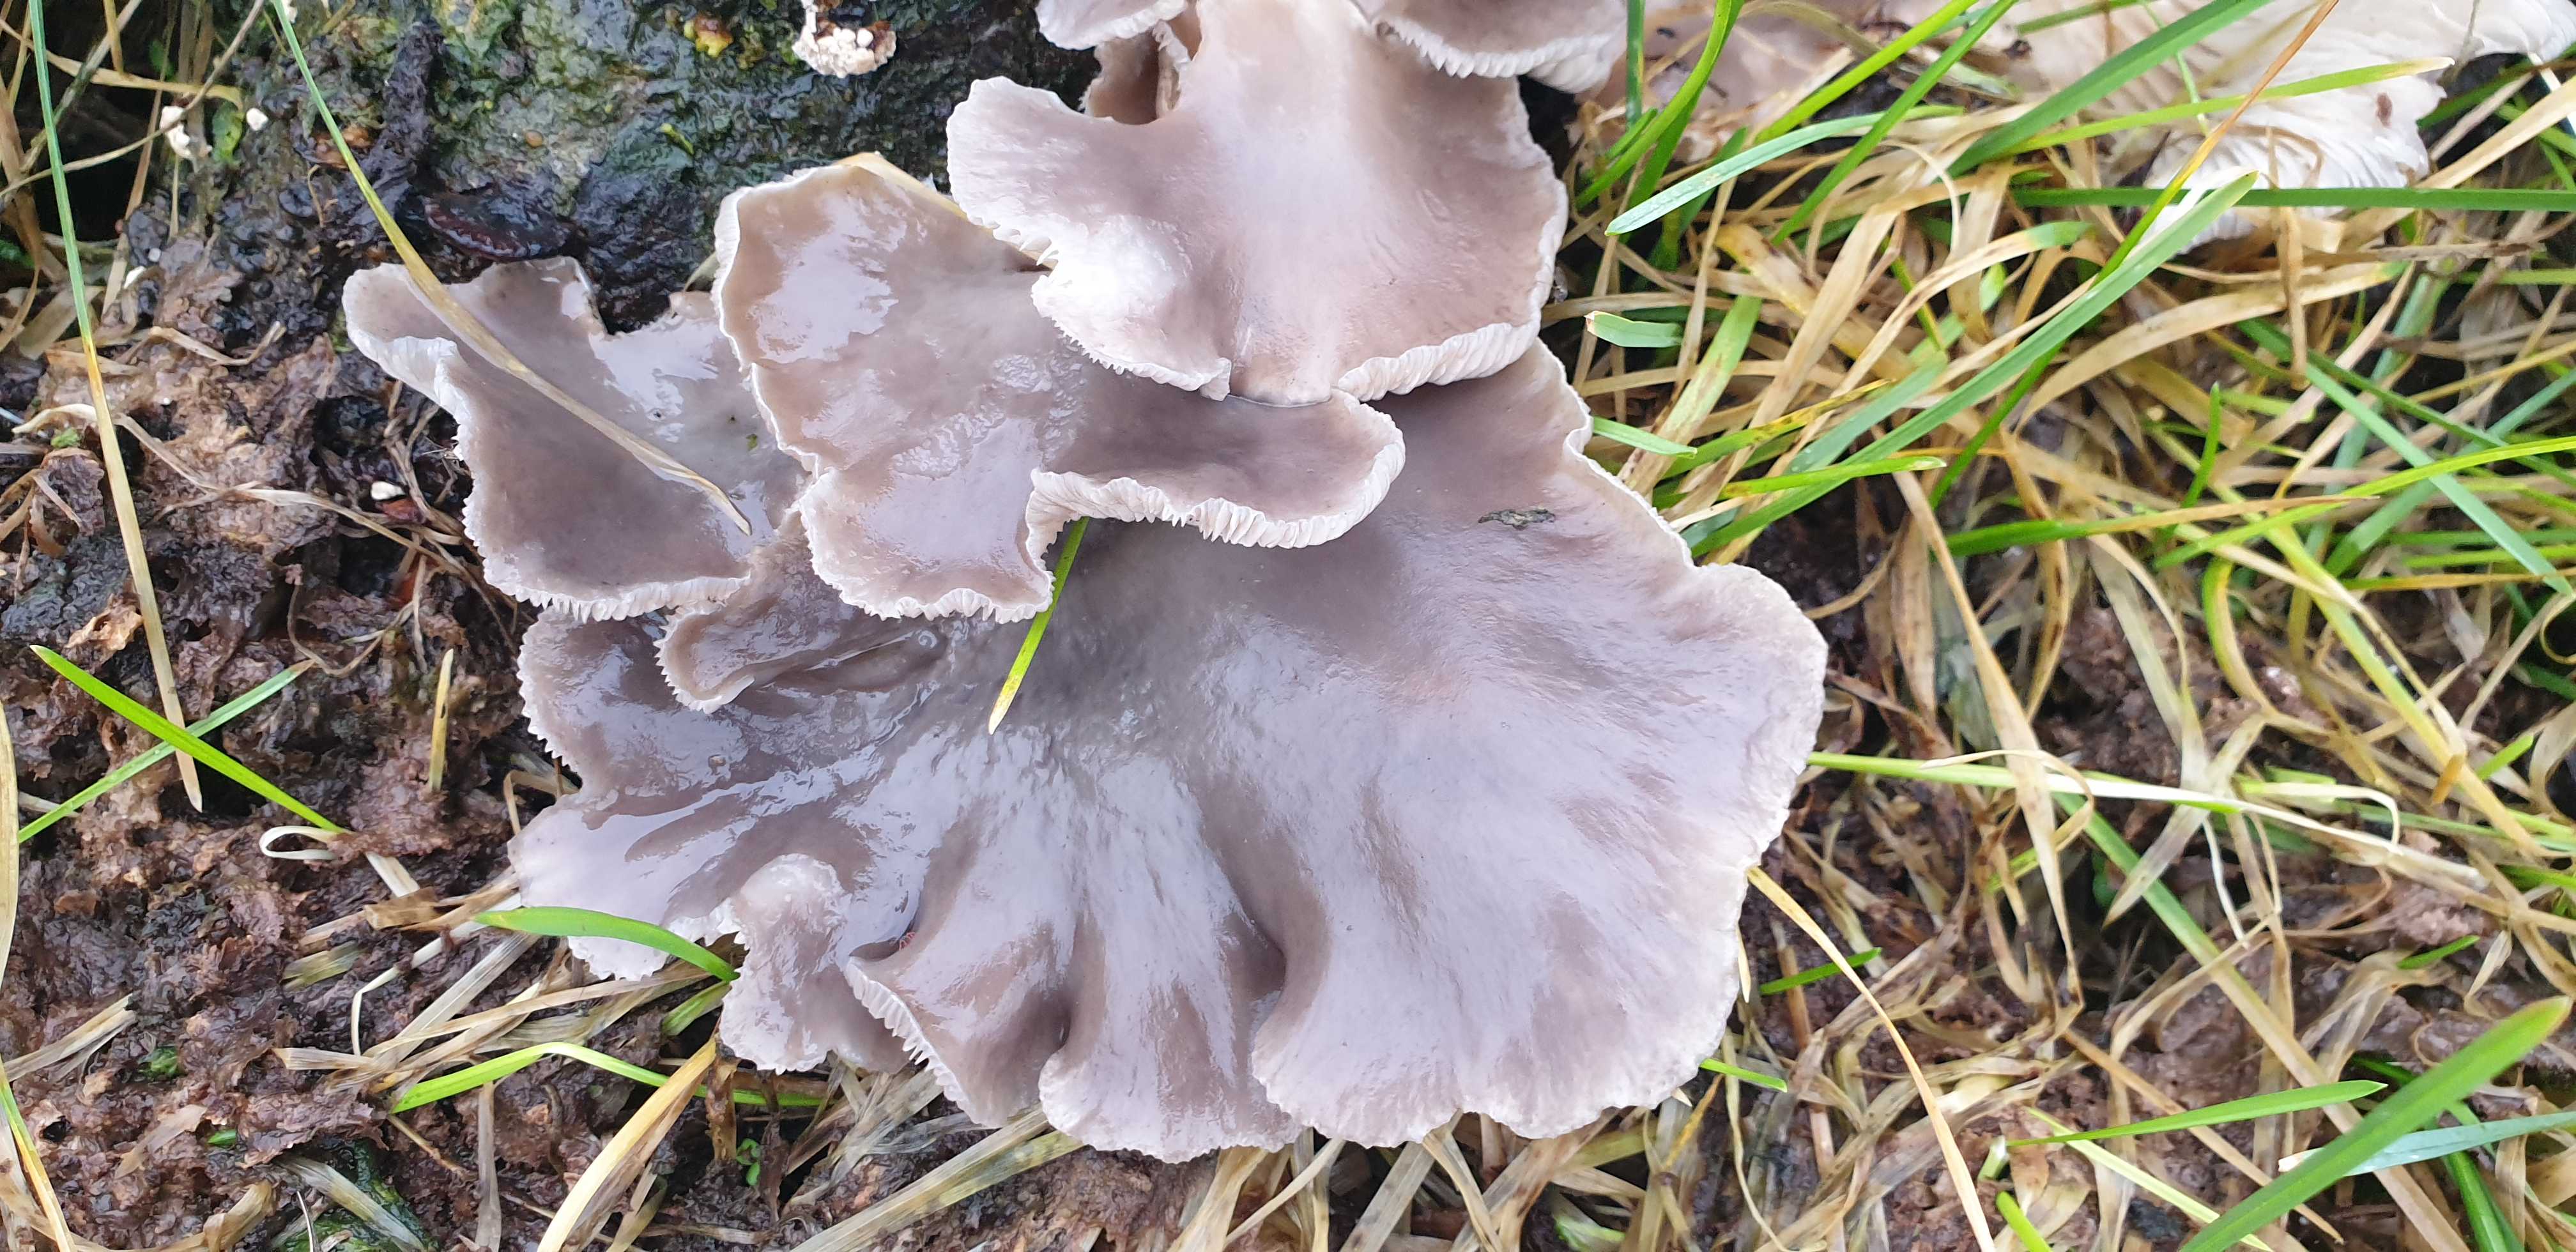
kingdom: Fungi
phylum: Basidiomycota
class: Agaricomycetes
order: Agaricales
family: Pleurotaceae
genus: Pleurotus
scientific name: Pleurotus ostreatus
